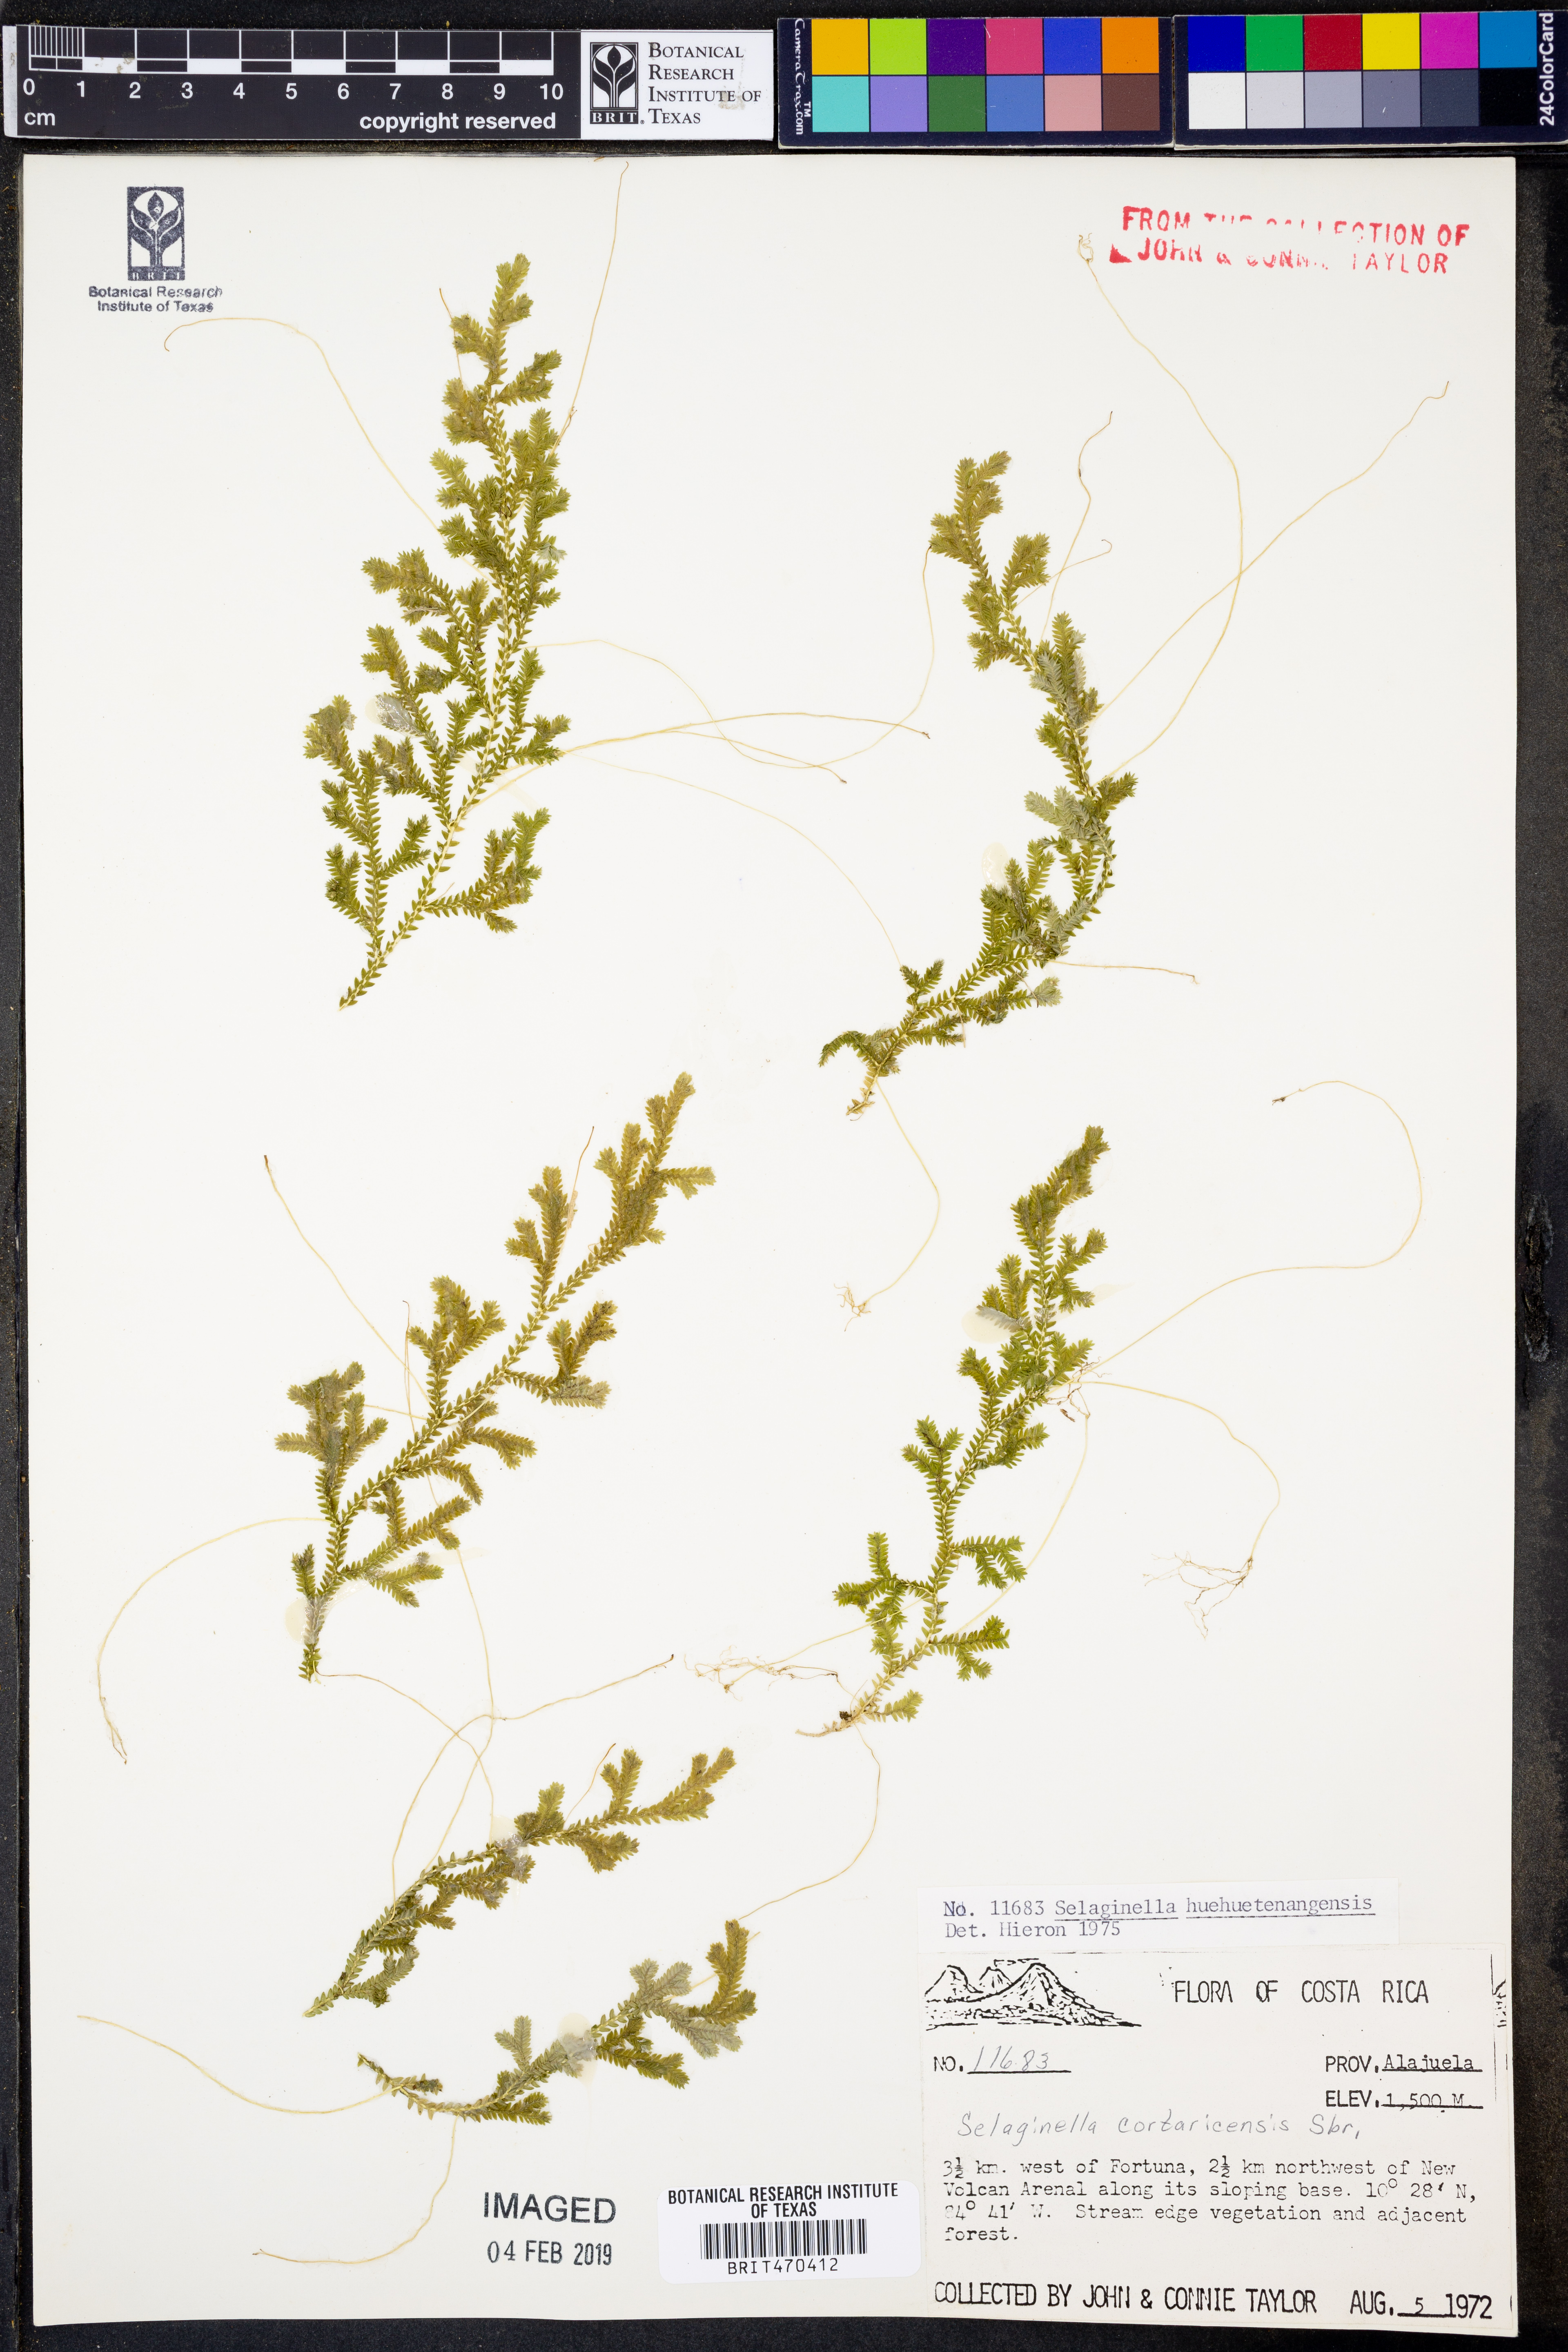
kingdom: Plantae
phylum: Tracheophyta
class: Lycopodiopsida
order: Selaginellales
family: Selaginellaceae
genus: Selaginella
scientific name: Selaginella huehuetenangensis
